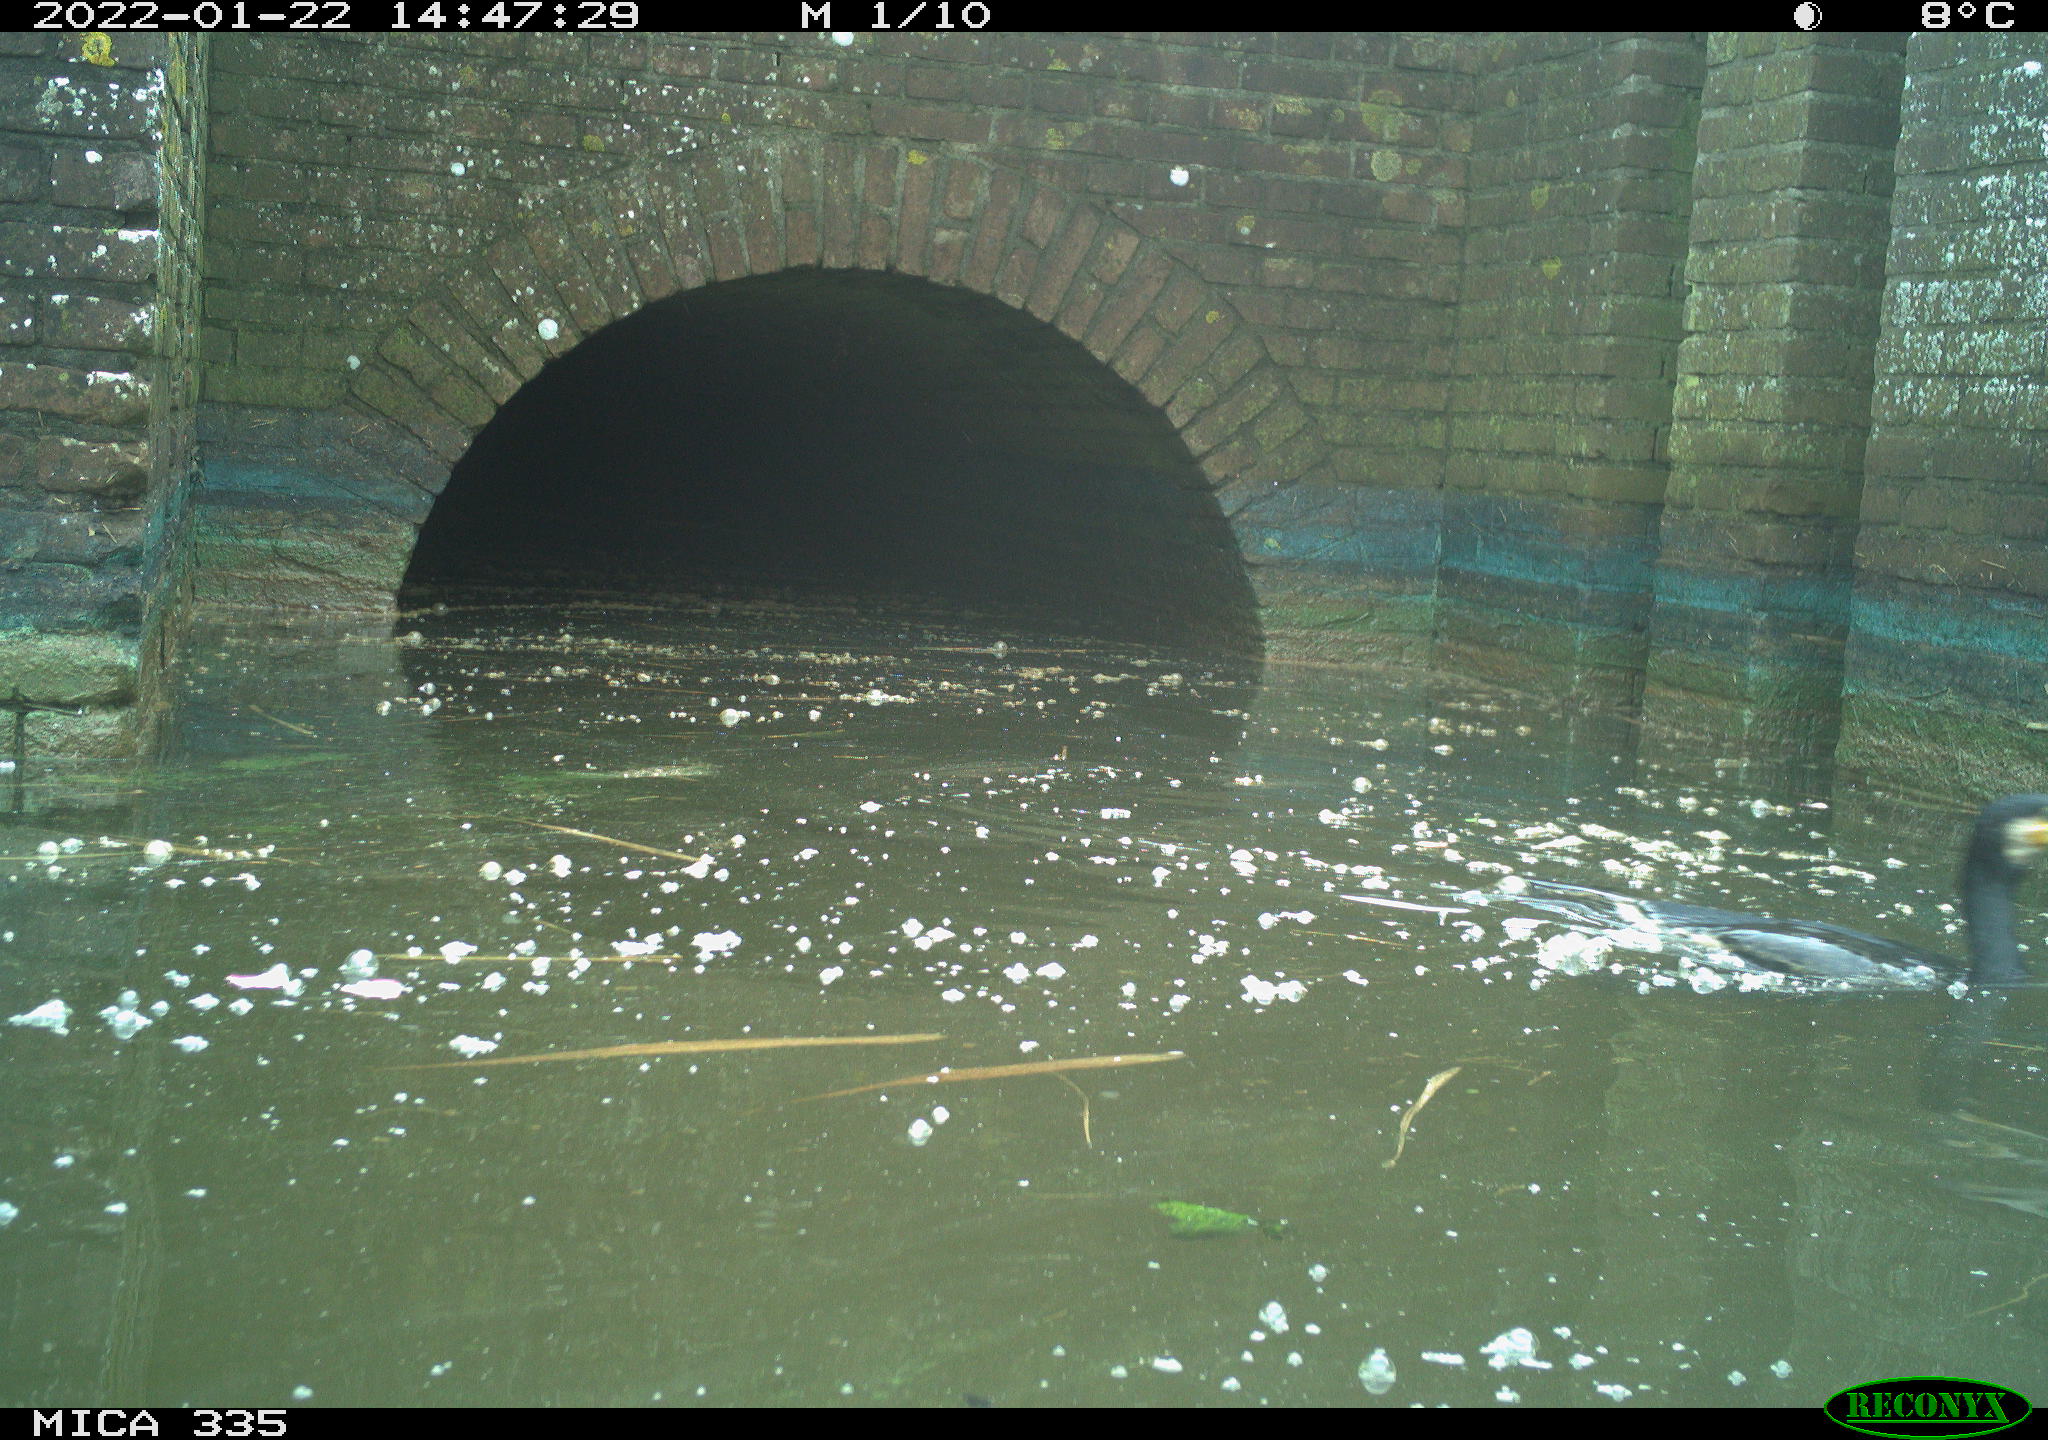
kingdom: Animalia
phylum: Chordata
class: Aves
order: Suliformes
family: Phalacrocoracidae
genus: Phalacrocorax
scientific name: Phalacrocorax carbo
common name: Great cormorant
